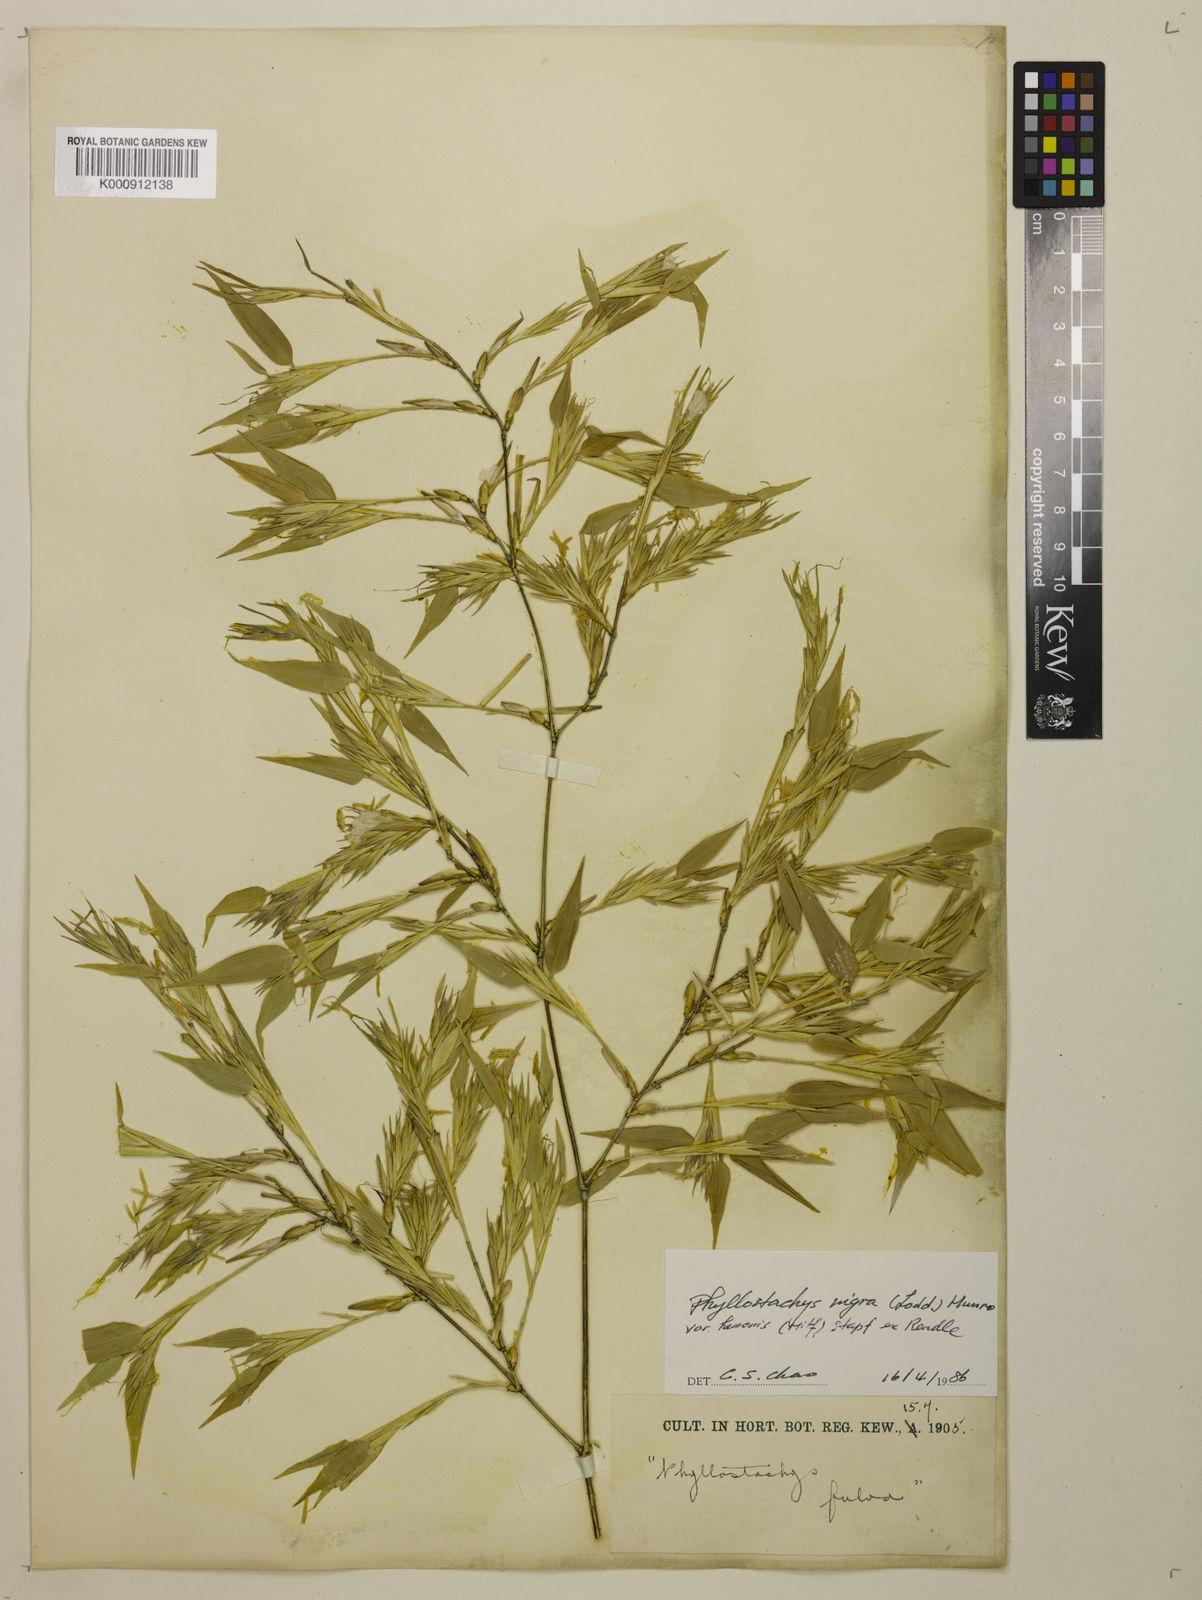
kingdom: Plantae
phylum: Tracheophyta
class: Liliopsida
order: Poales
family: Poaceae
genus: Phyllostachys
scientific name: Phyllostachys nigra
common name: Black bamboo
